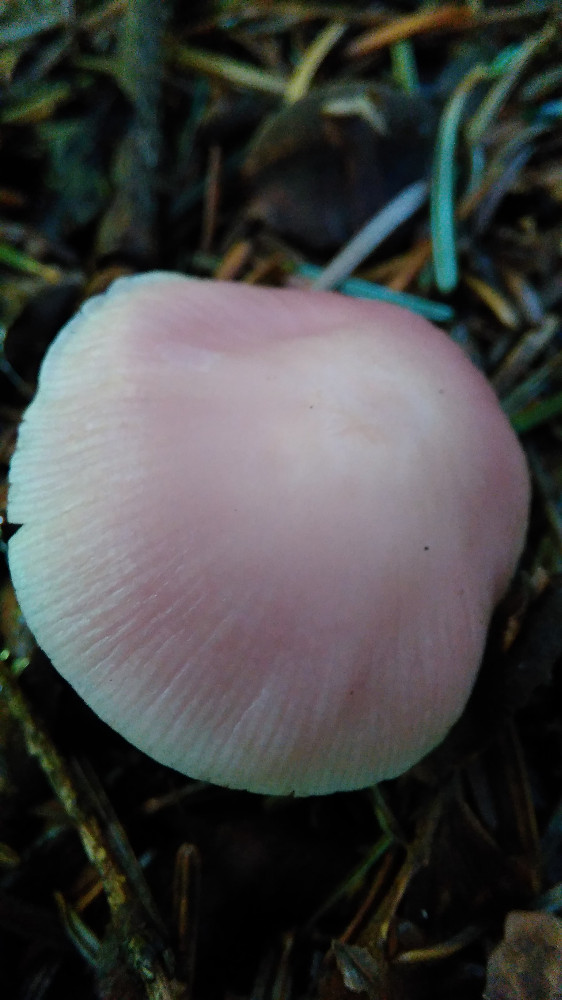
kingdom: Fungi
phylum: Basidiomycota
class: Agaricomycetes
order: Agaricales
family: Mycenaceae
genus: Mycena
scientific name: Mycena rosea
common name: rosa huesvamp
